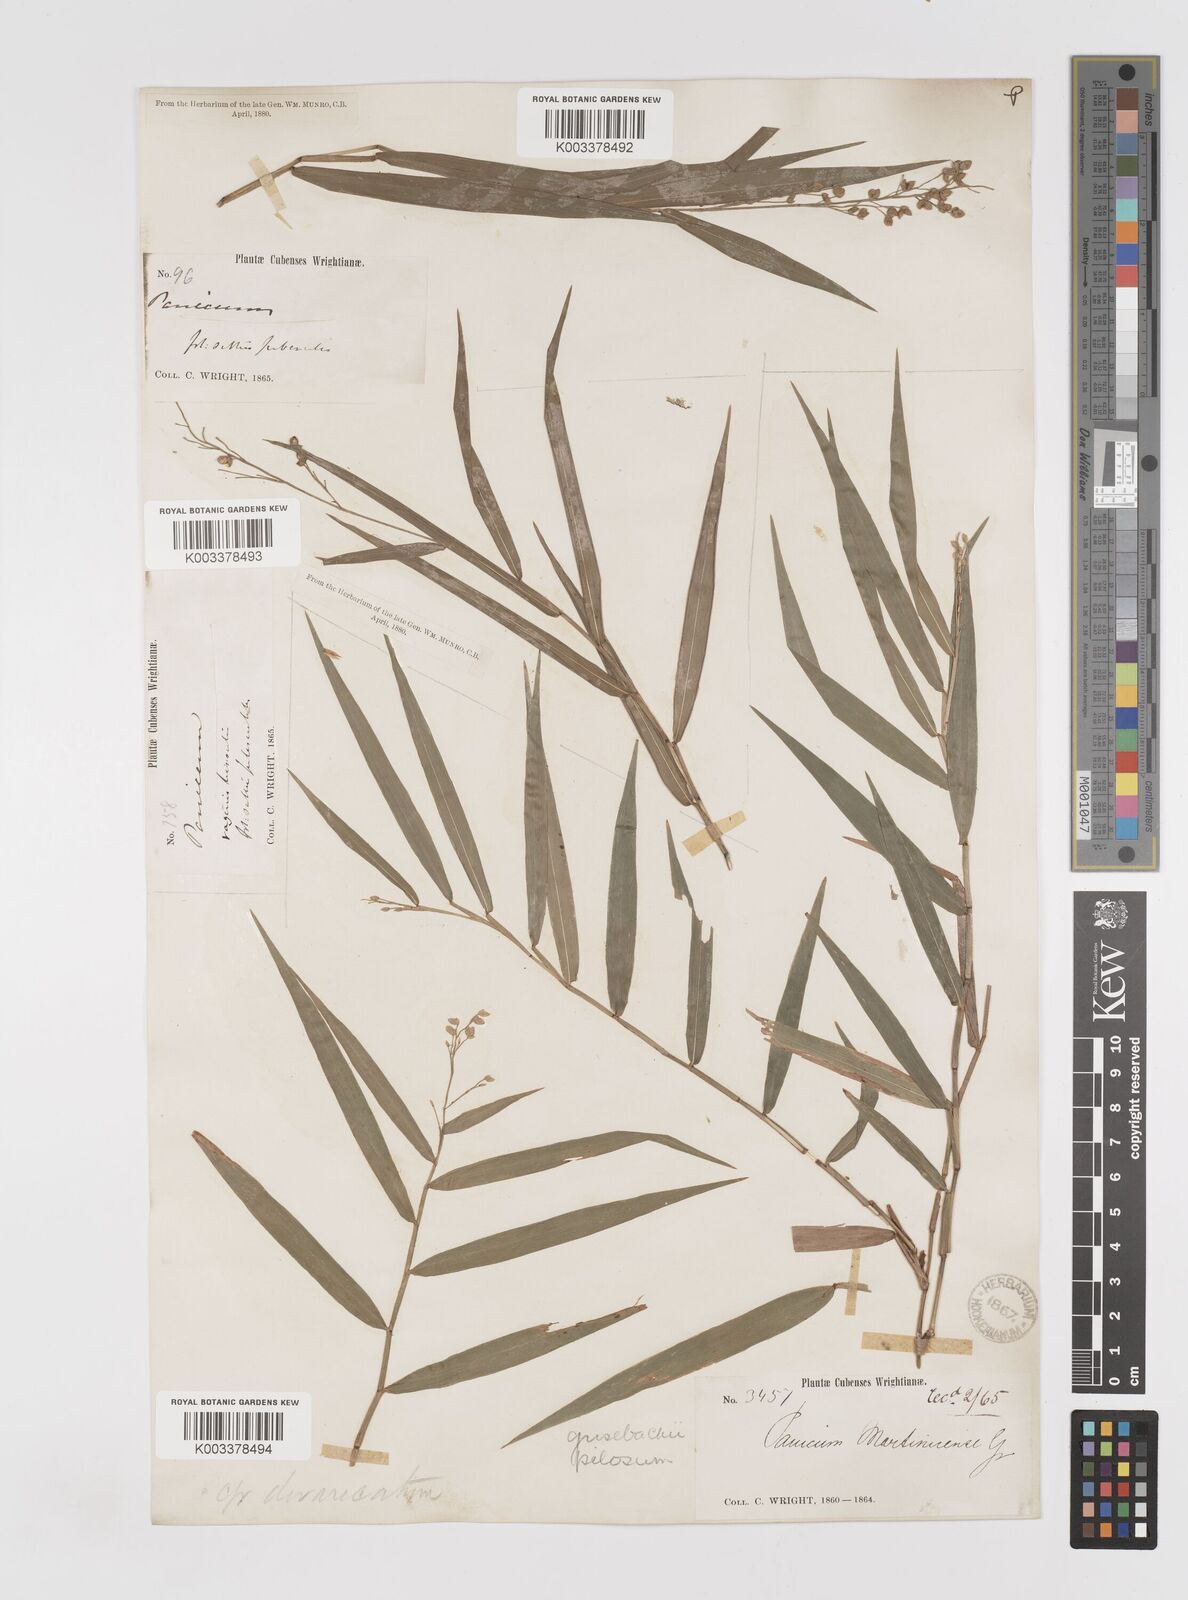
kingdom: Plantae
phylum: Tracheophyta
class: Liliopsida
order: Poales
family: Poaceae
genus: Lasiacis
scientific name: Lasiacis grisebachii
